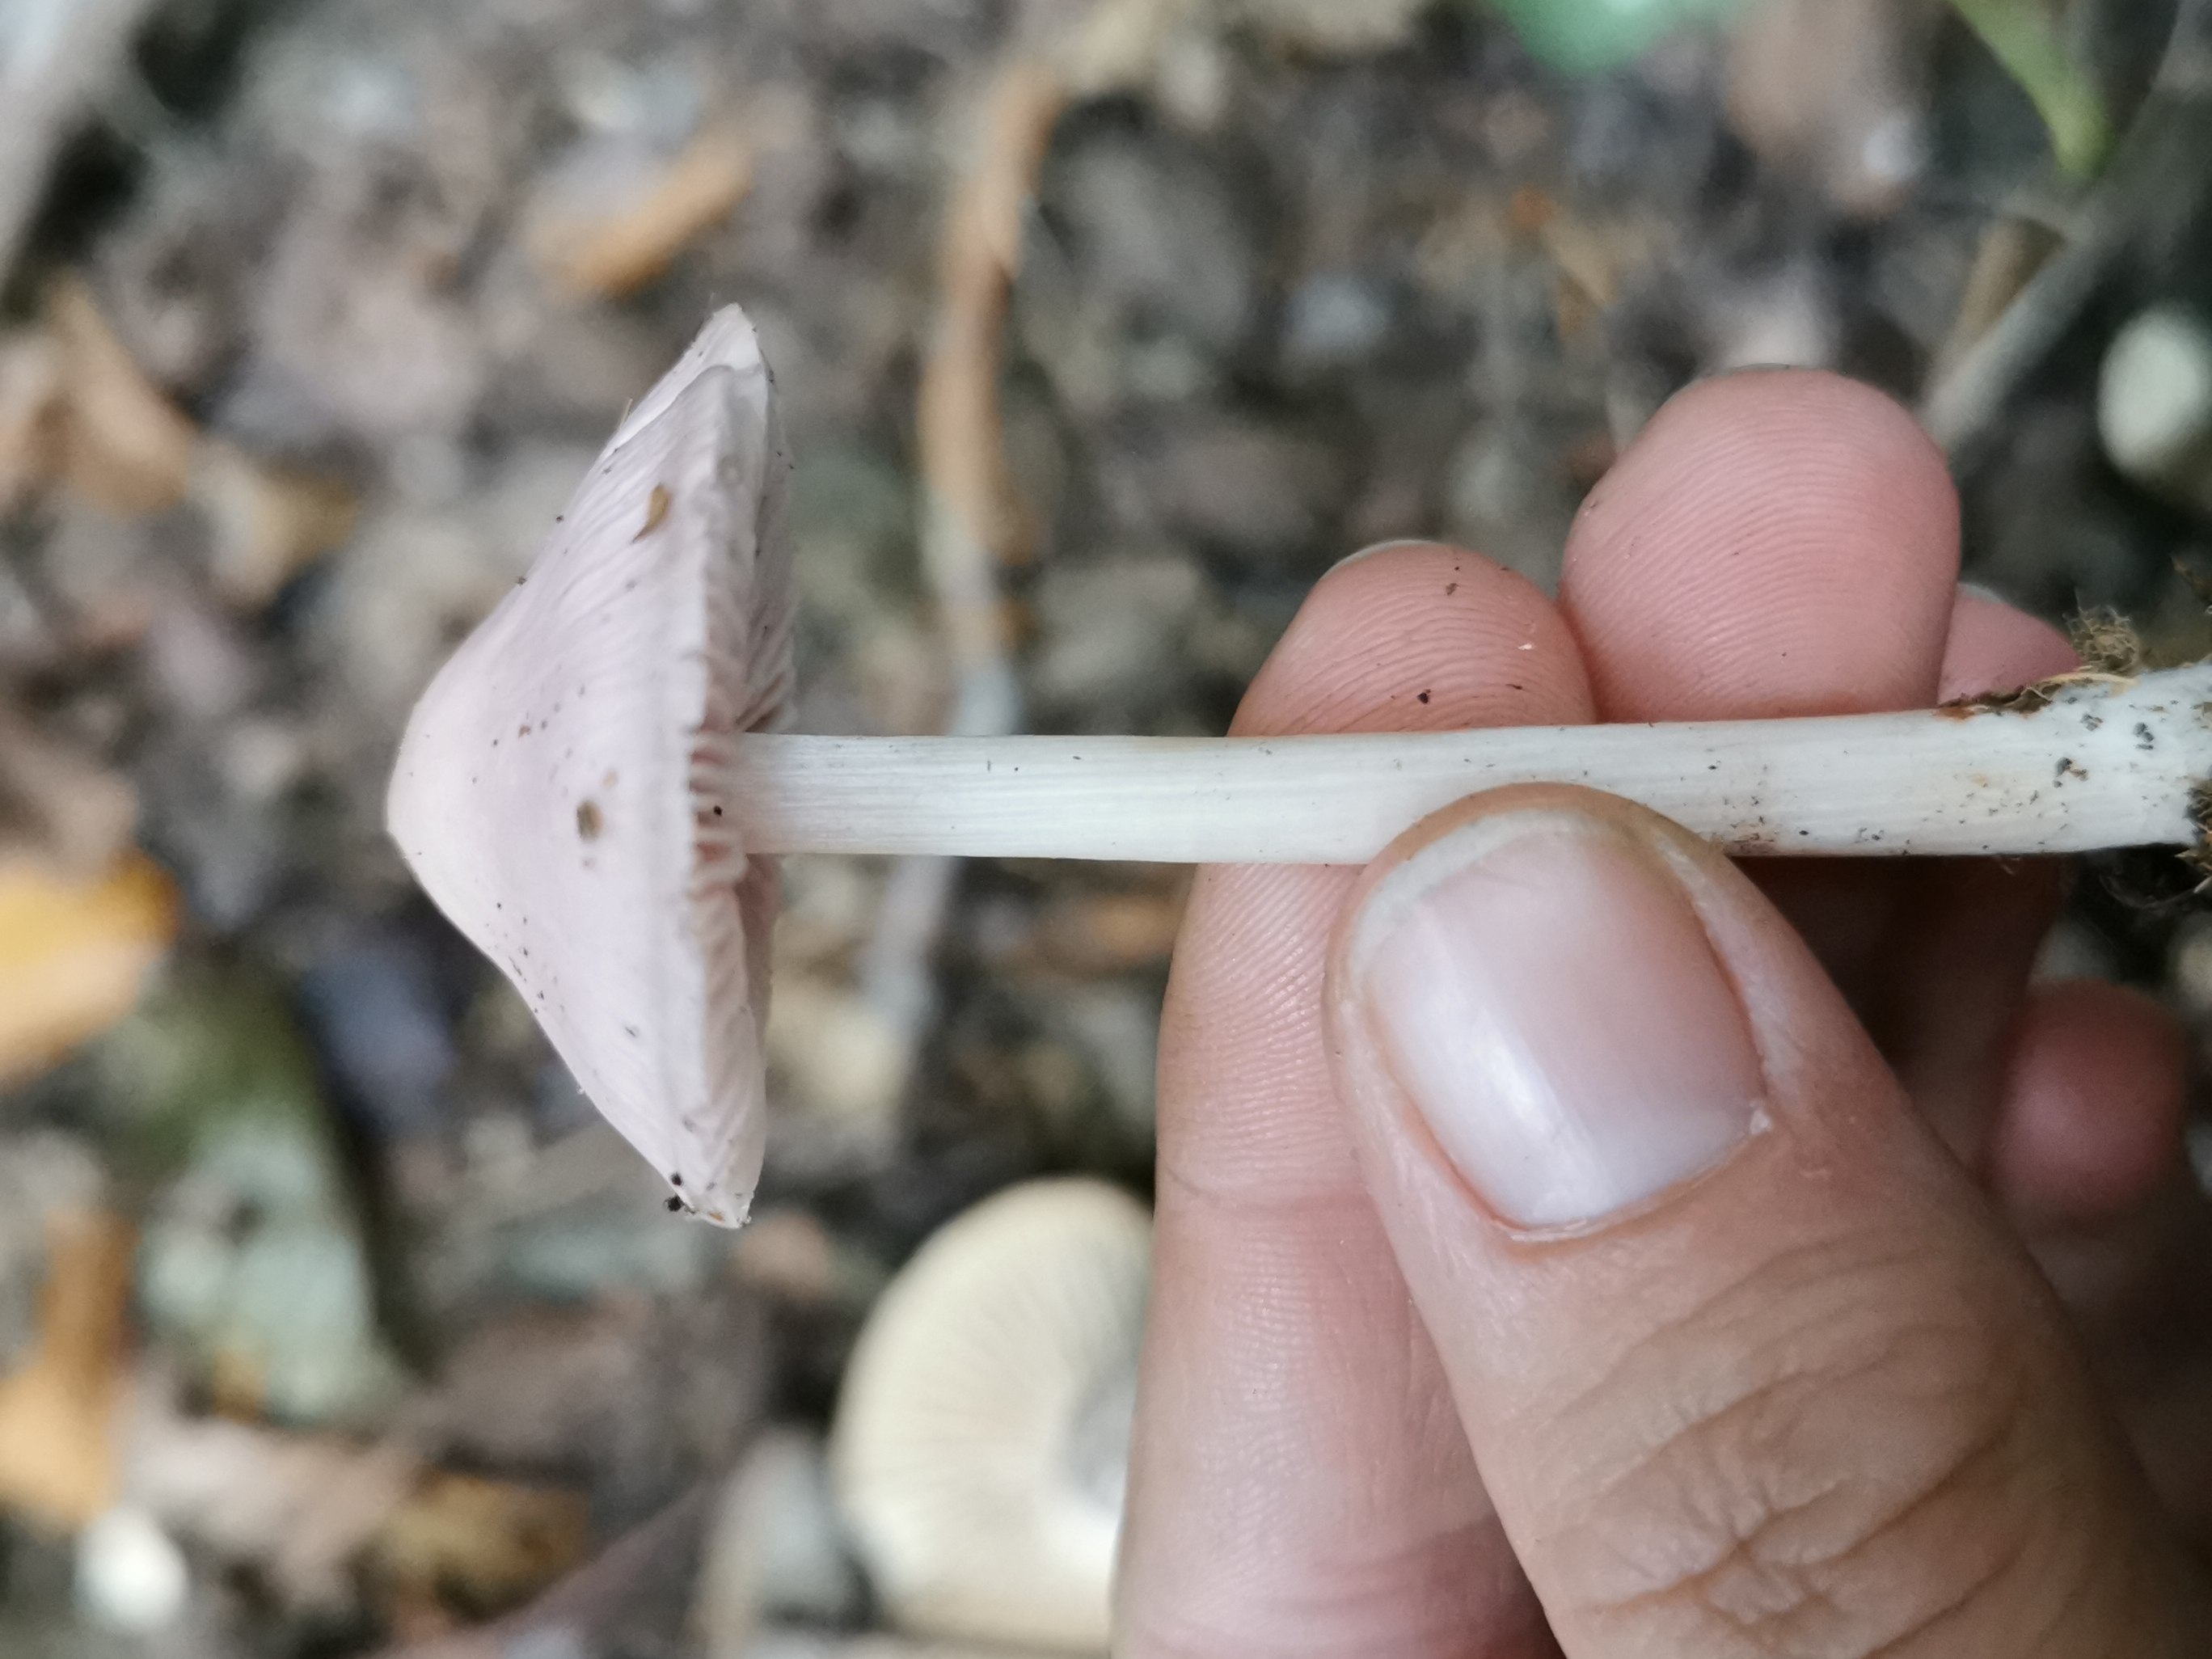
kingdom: Fungi
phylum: Basidiomycota
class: Agaricomycetes
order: Agaricales
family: Mycenaceae
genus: Mycena
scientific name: Mycena rosea
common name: rosa huesvamp
